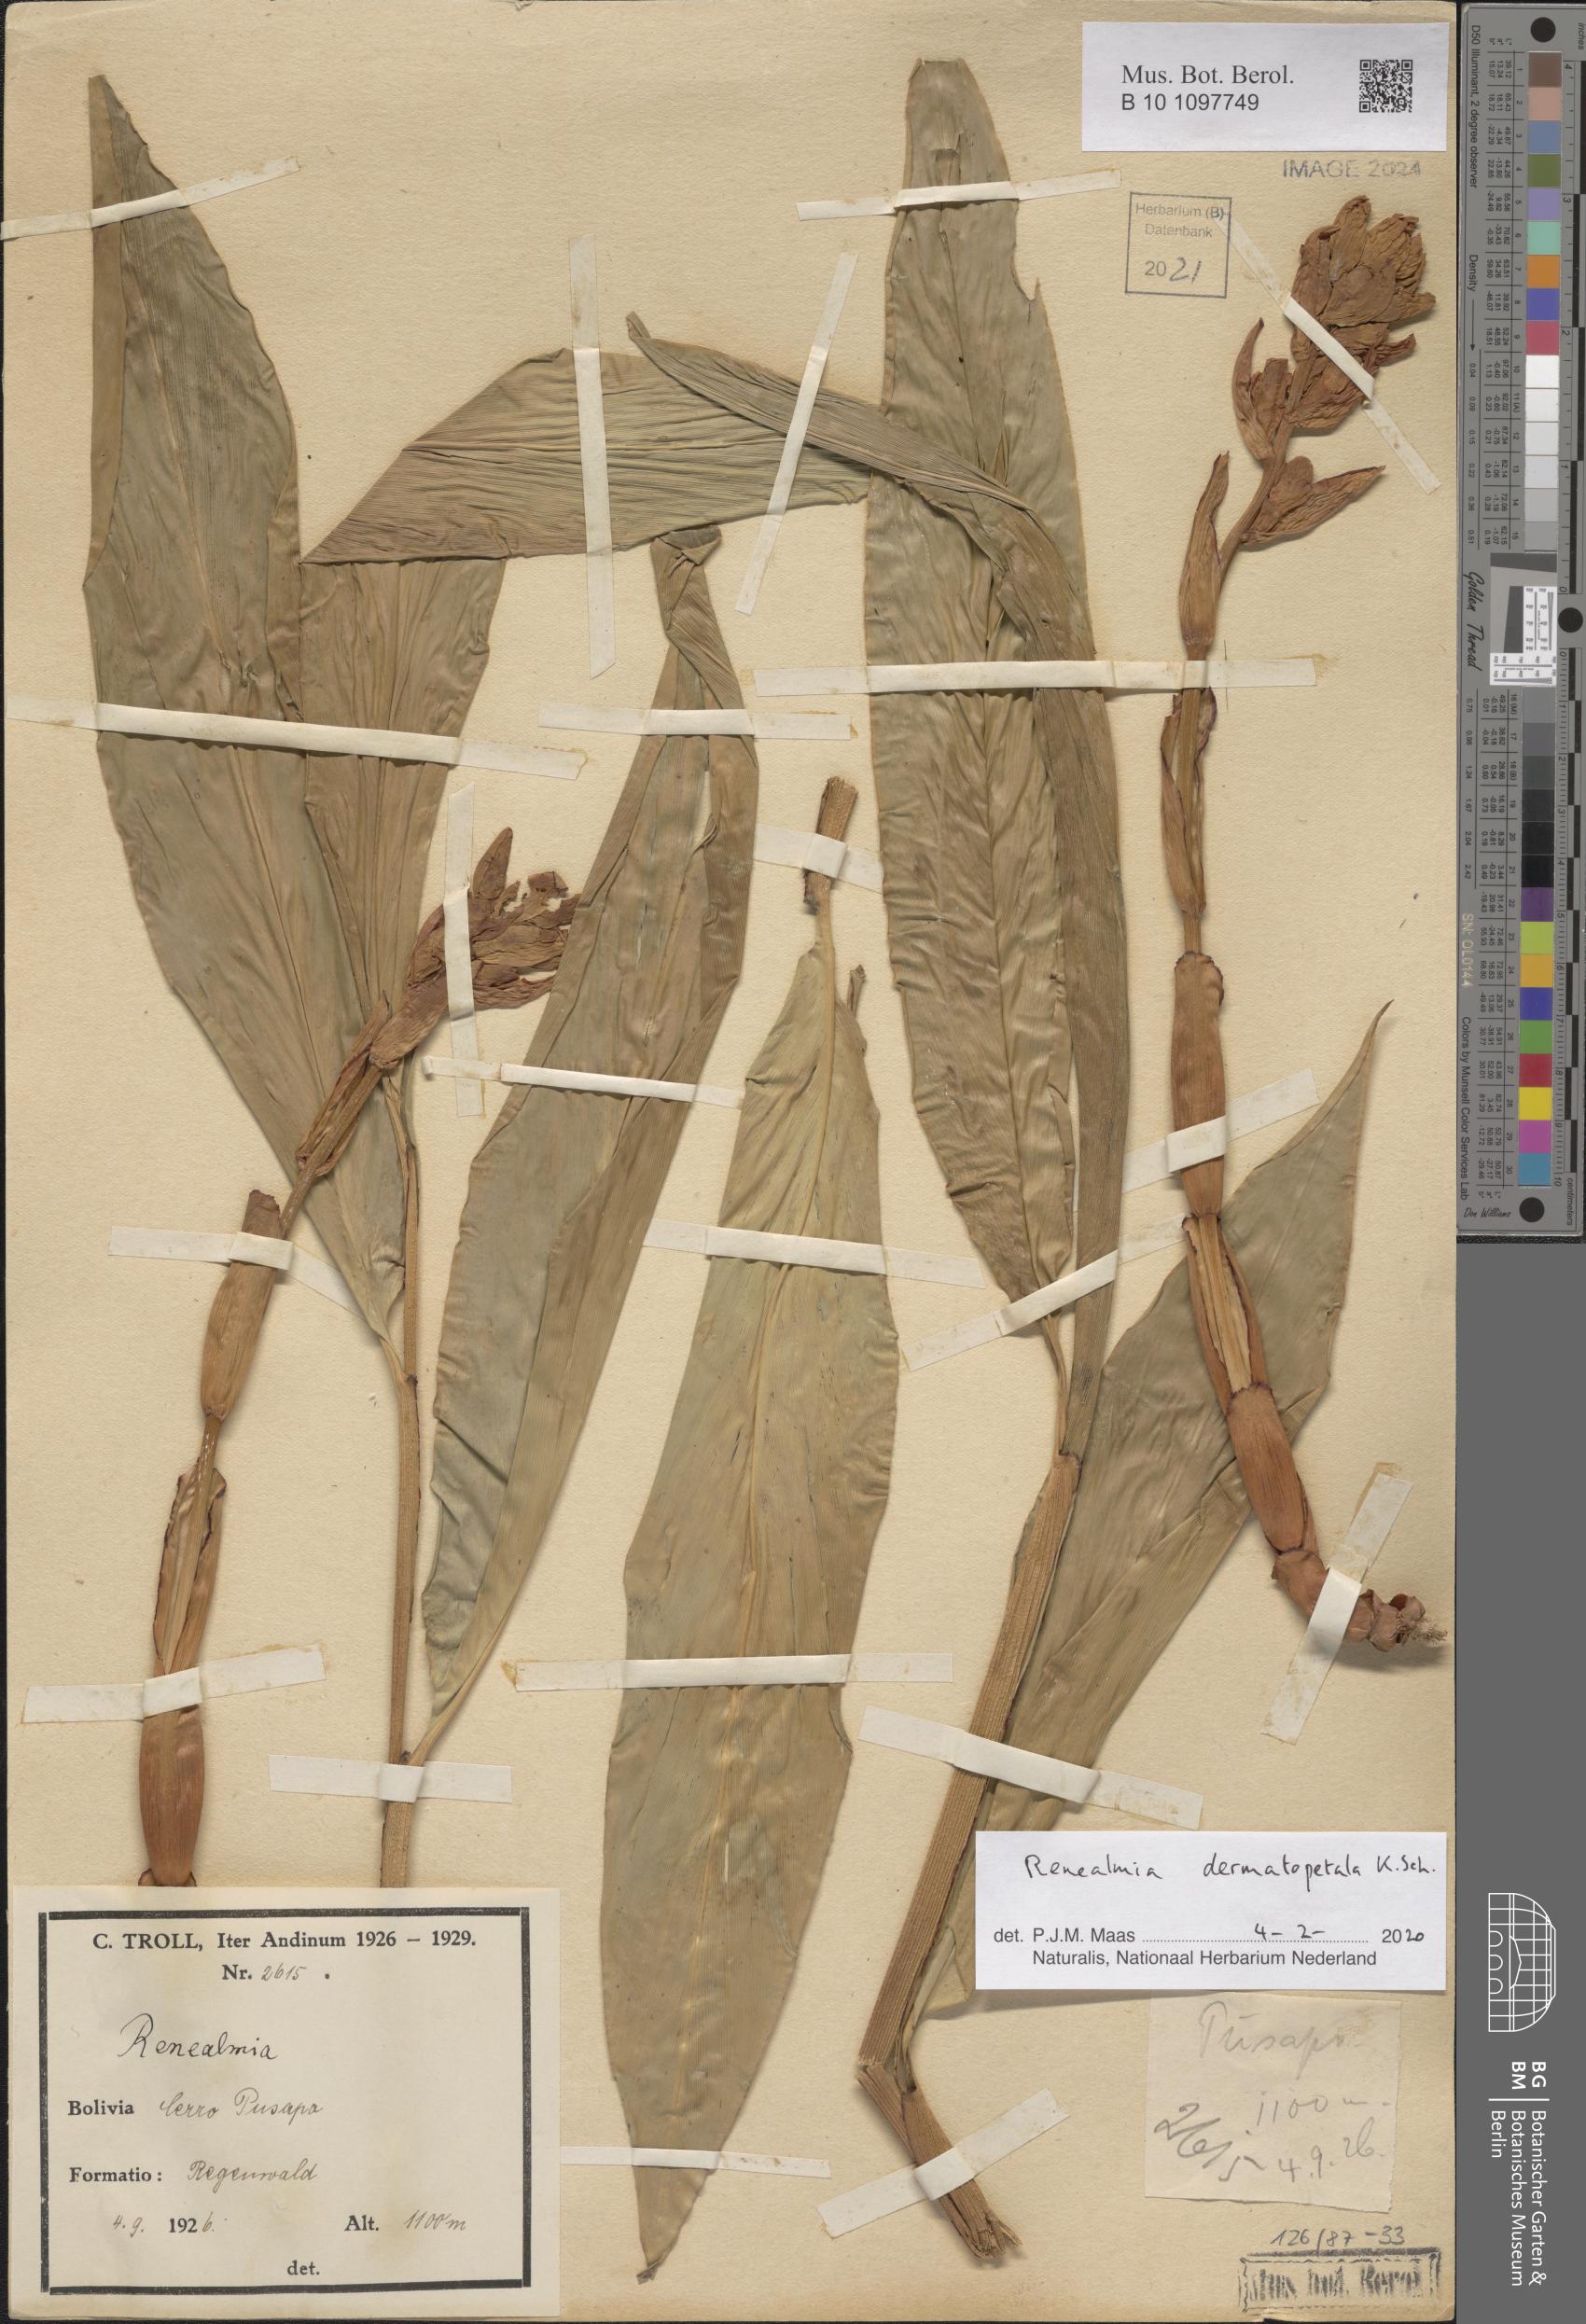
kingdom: Plantae
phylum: Tracheophyta
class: Liliopsida
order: Zingiberales
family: Zingiberaceae
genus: Renealmia
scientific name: Renealmia dermatopetala
